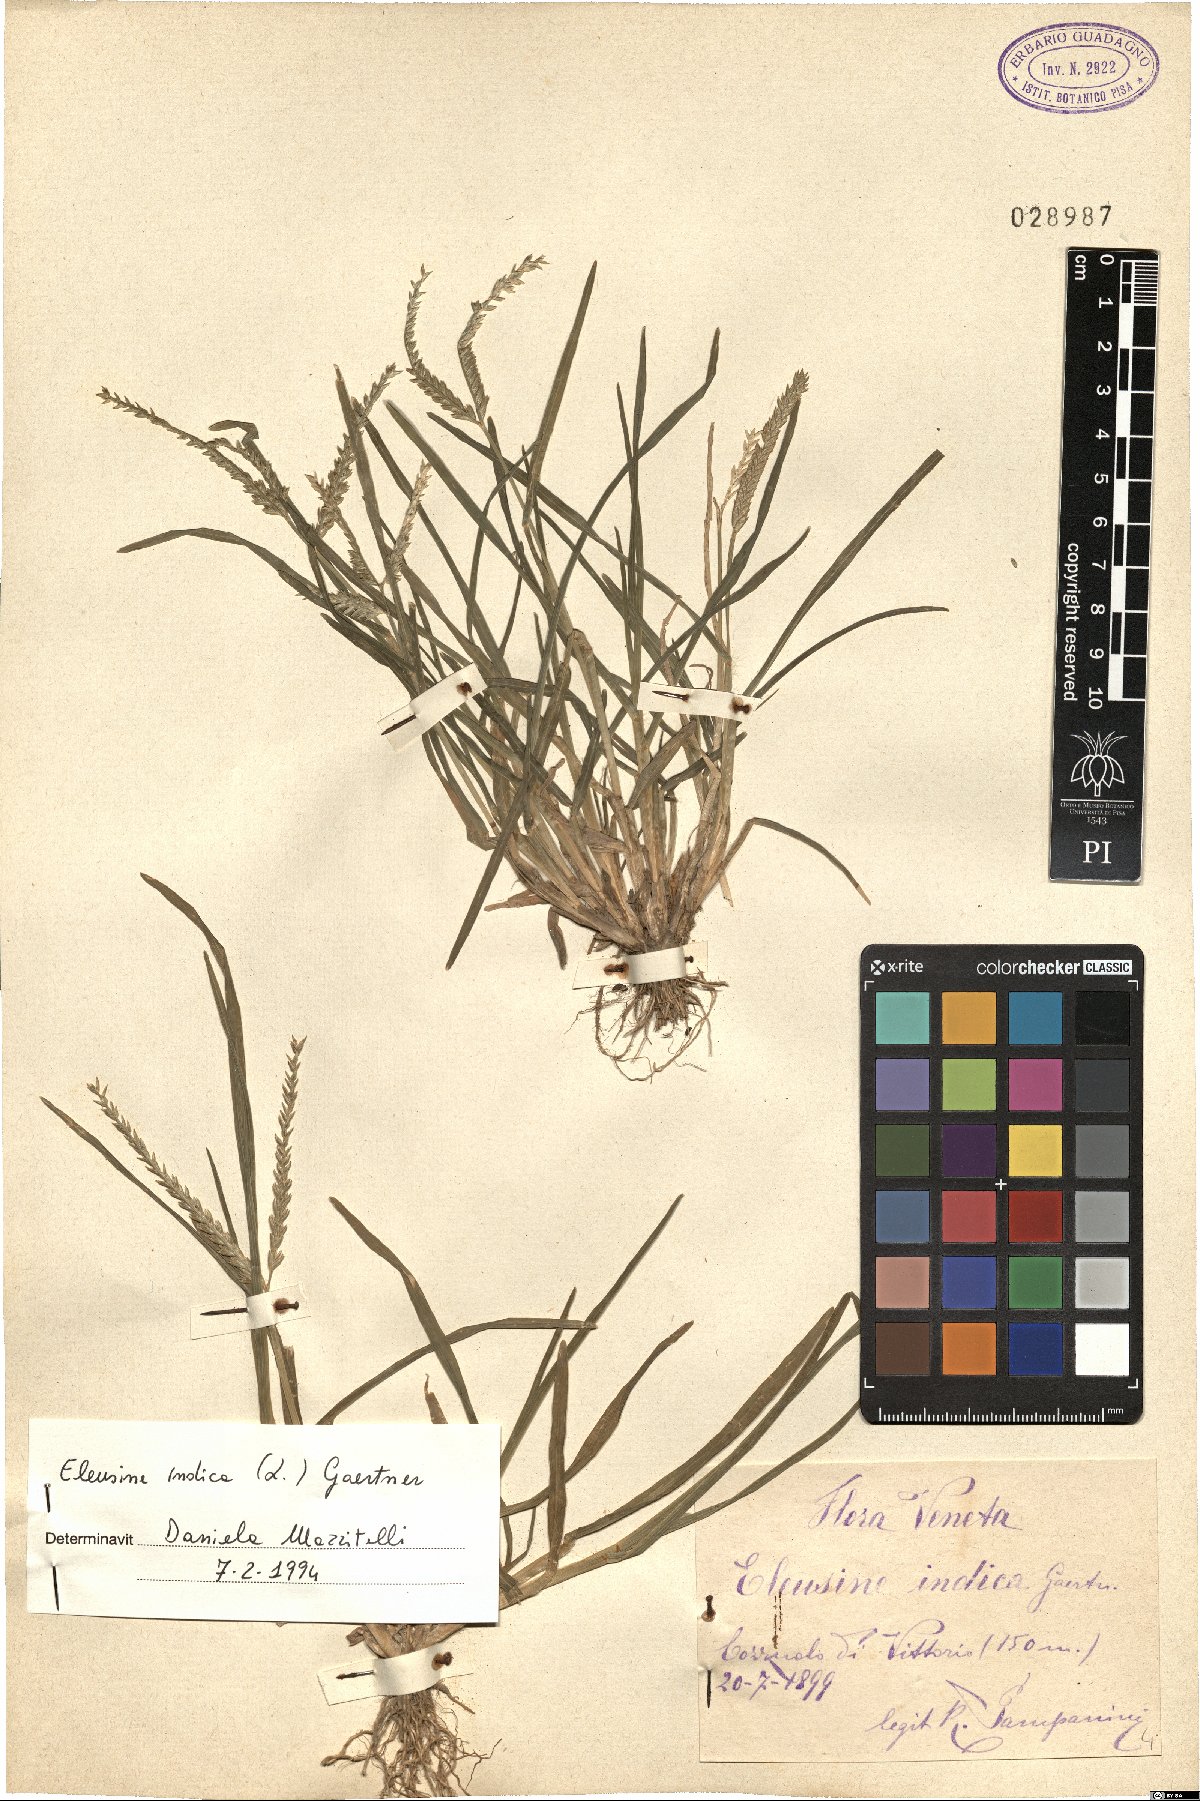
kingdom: Plantae
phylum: Tracheophyta
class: Liliopsida
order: Poales
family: Poaceae
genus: Eleusine
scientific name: Eleusine indica
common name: Yard-grass
